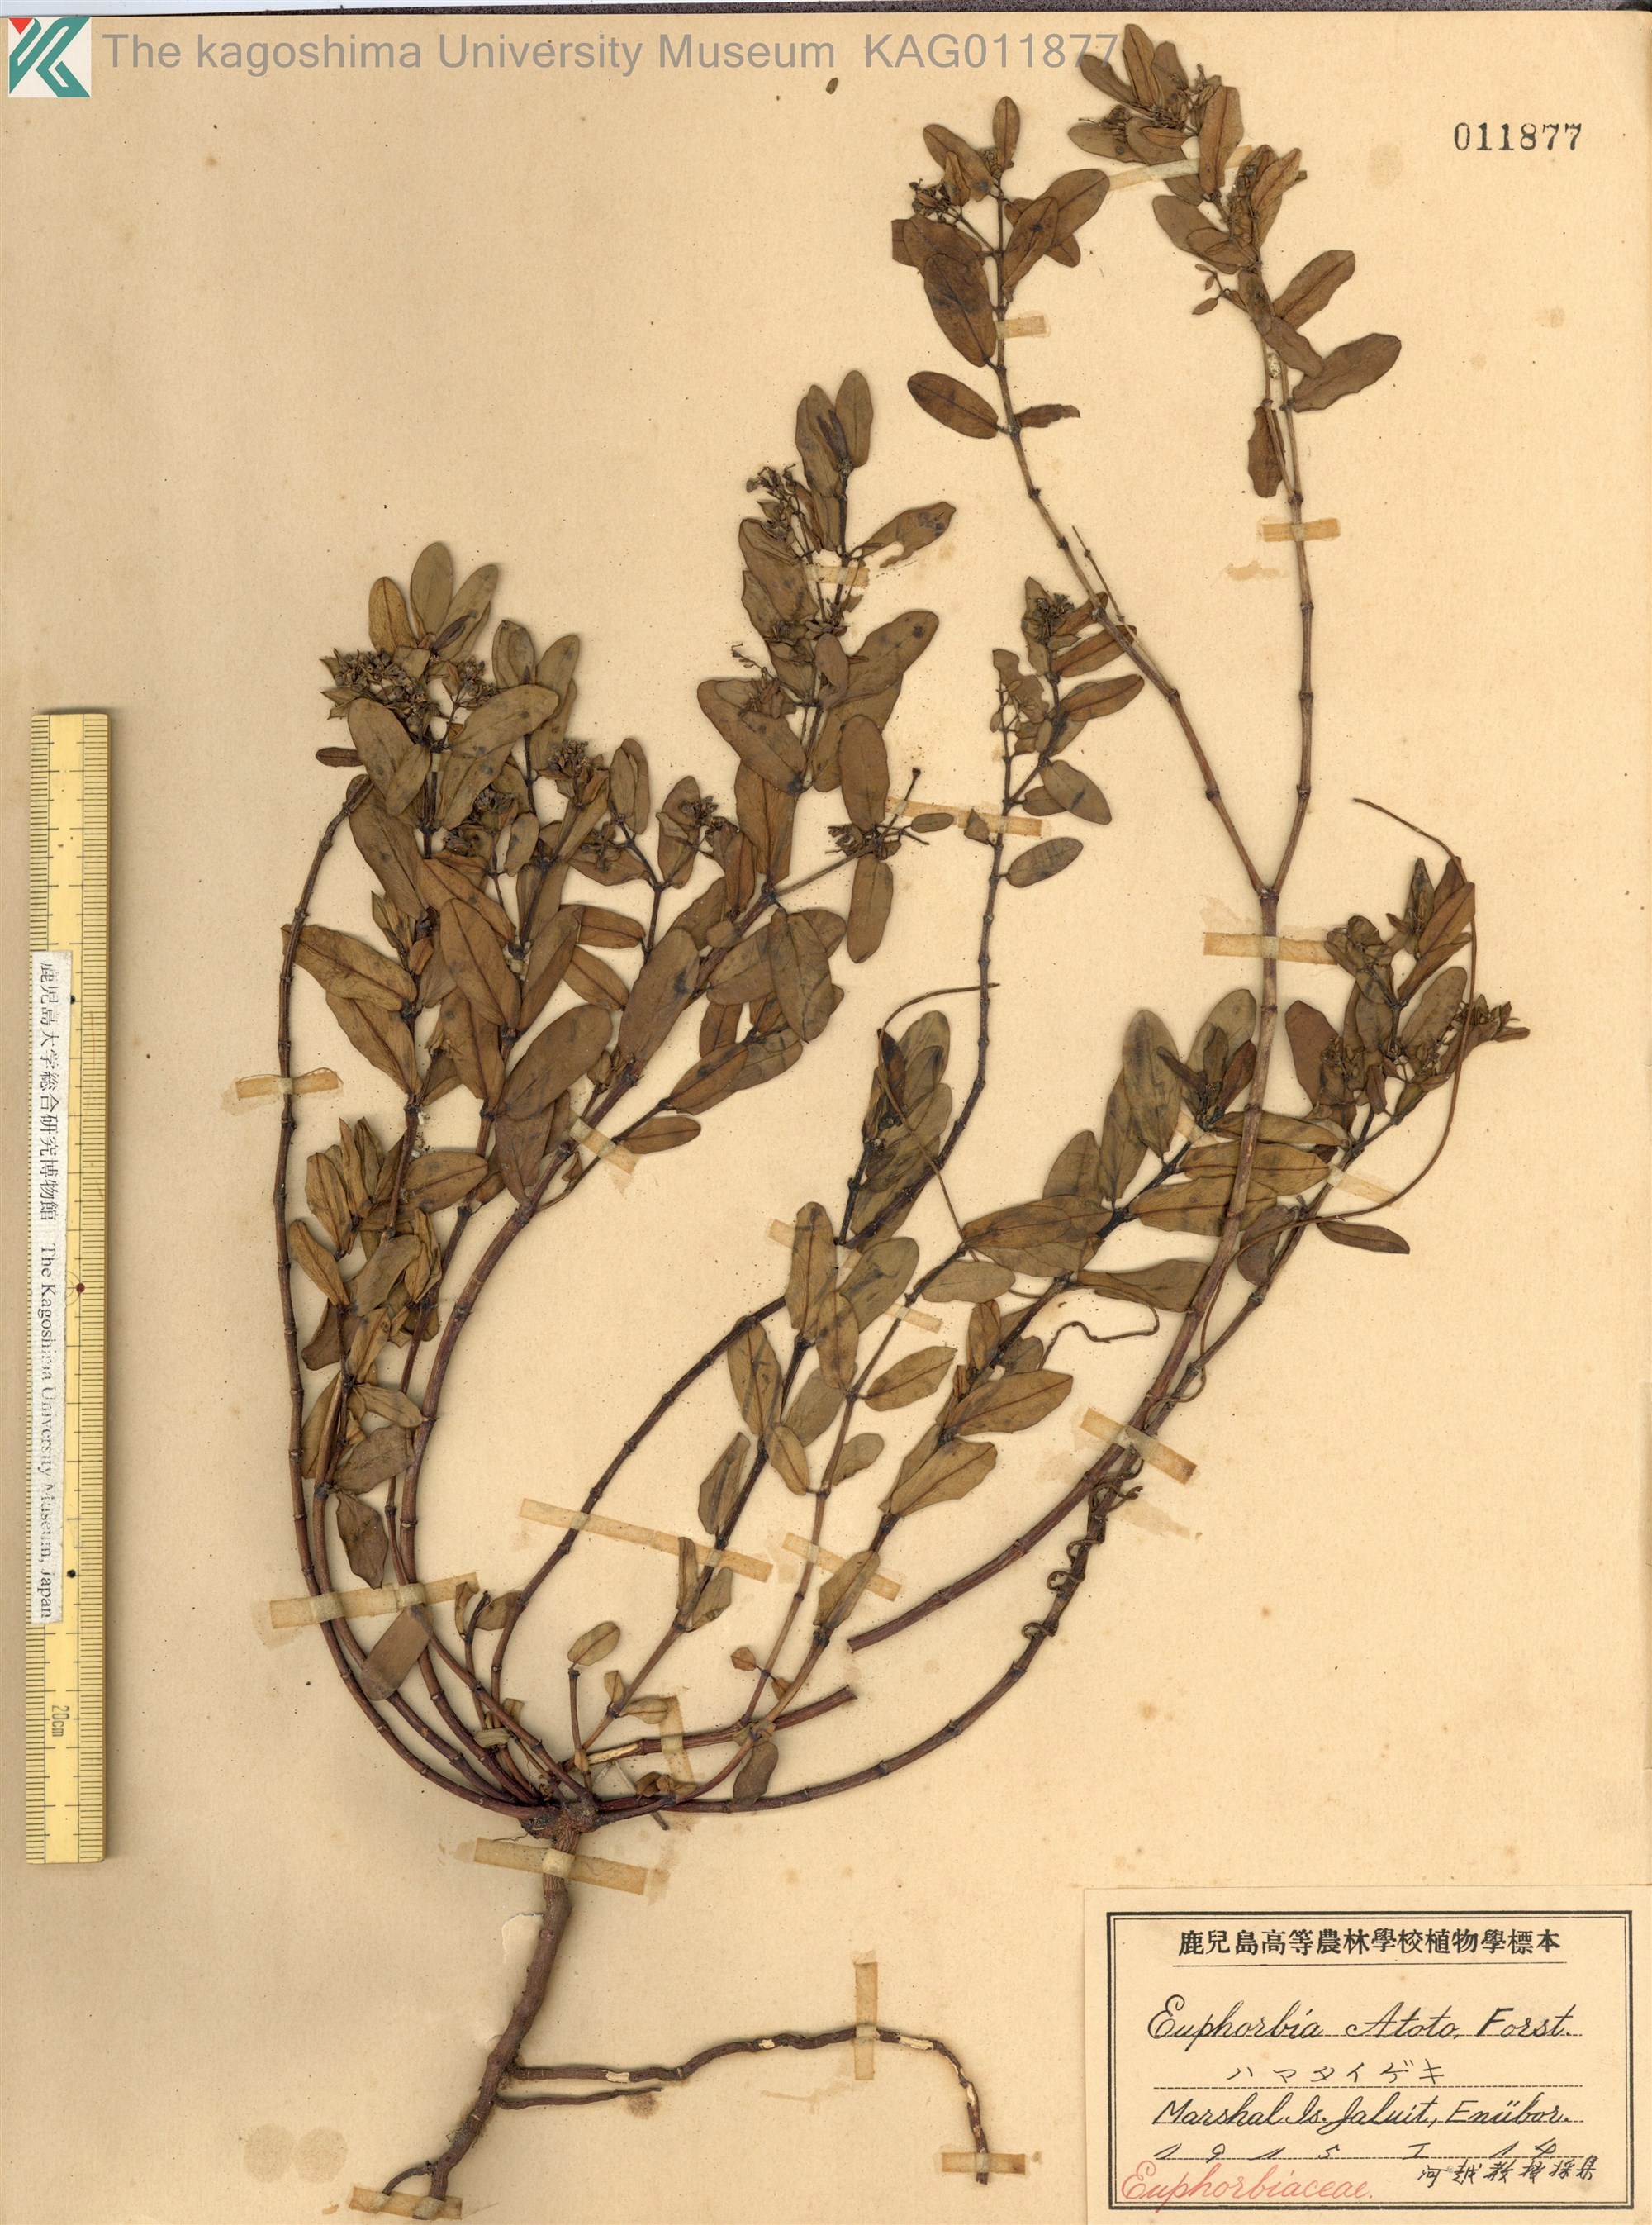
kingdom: Plantae
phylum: Tracheophyta
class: Magnoliopsida
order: Malpighiales
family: Euphorbiaceae
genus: Euphorbia
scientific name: Euphorbia chamissonis
